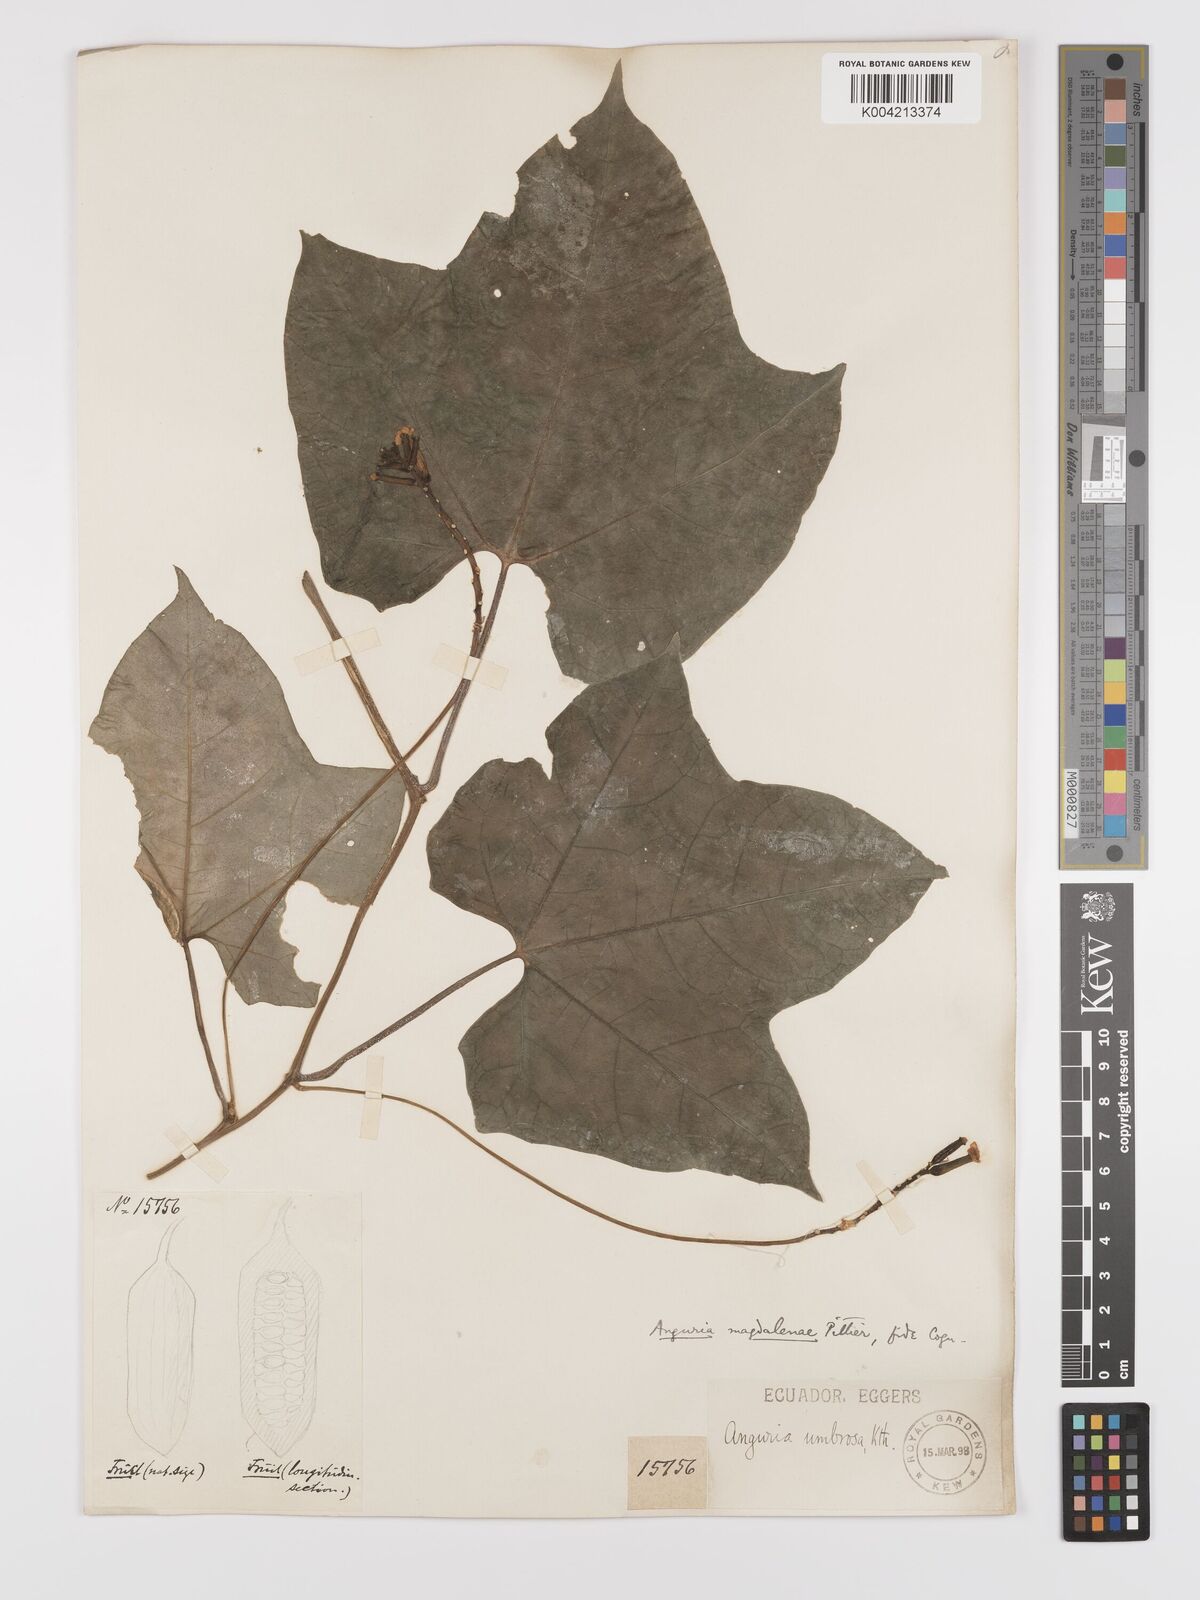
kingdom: Plantae
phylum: Tracheophyta
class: Magnoliopsida
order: Cucurbitales
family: Cucurbitaceae
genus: Psiguria
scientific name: Psiguria warscewiczii
